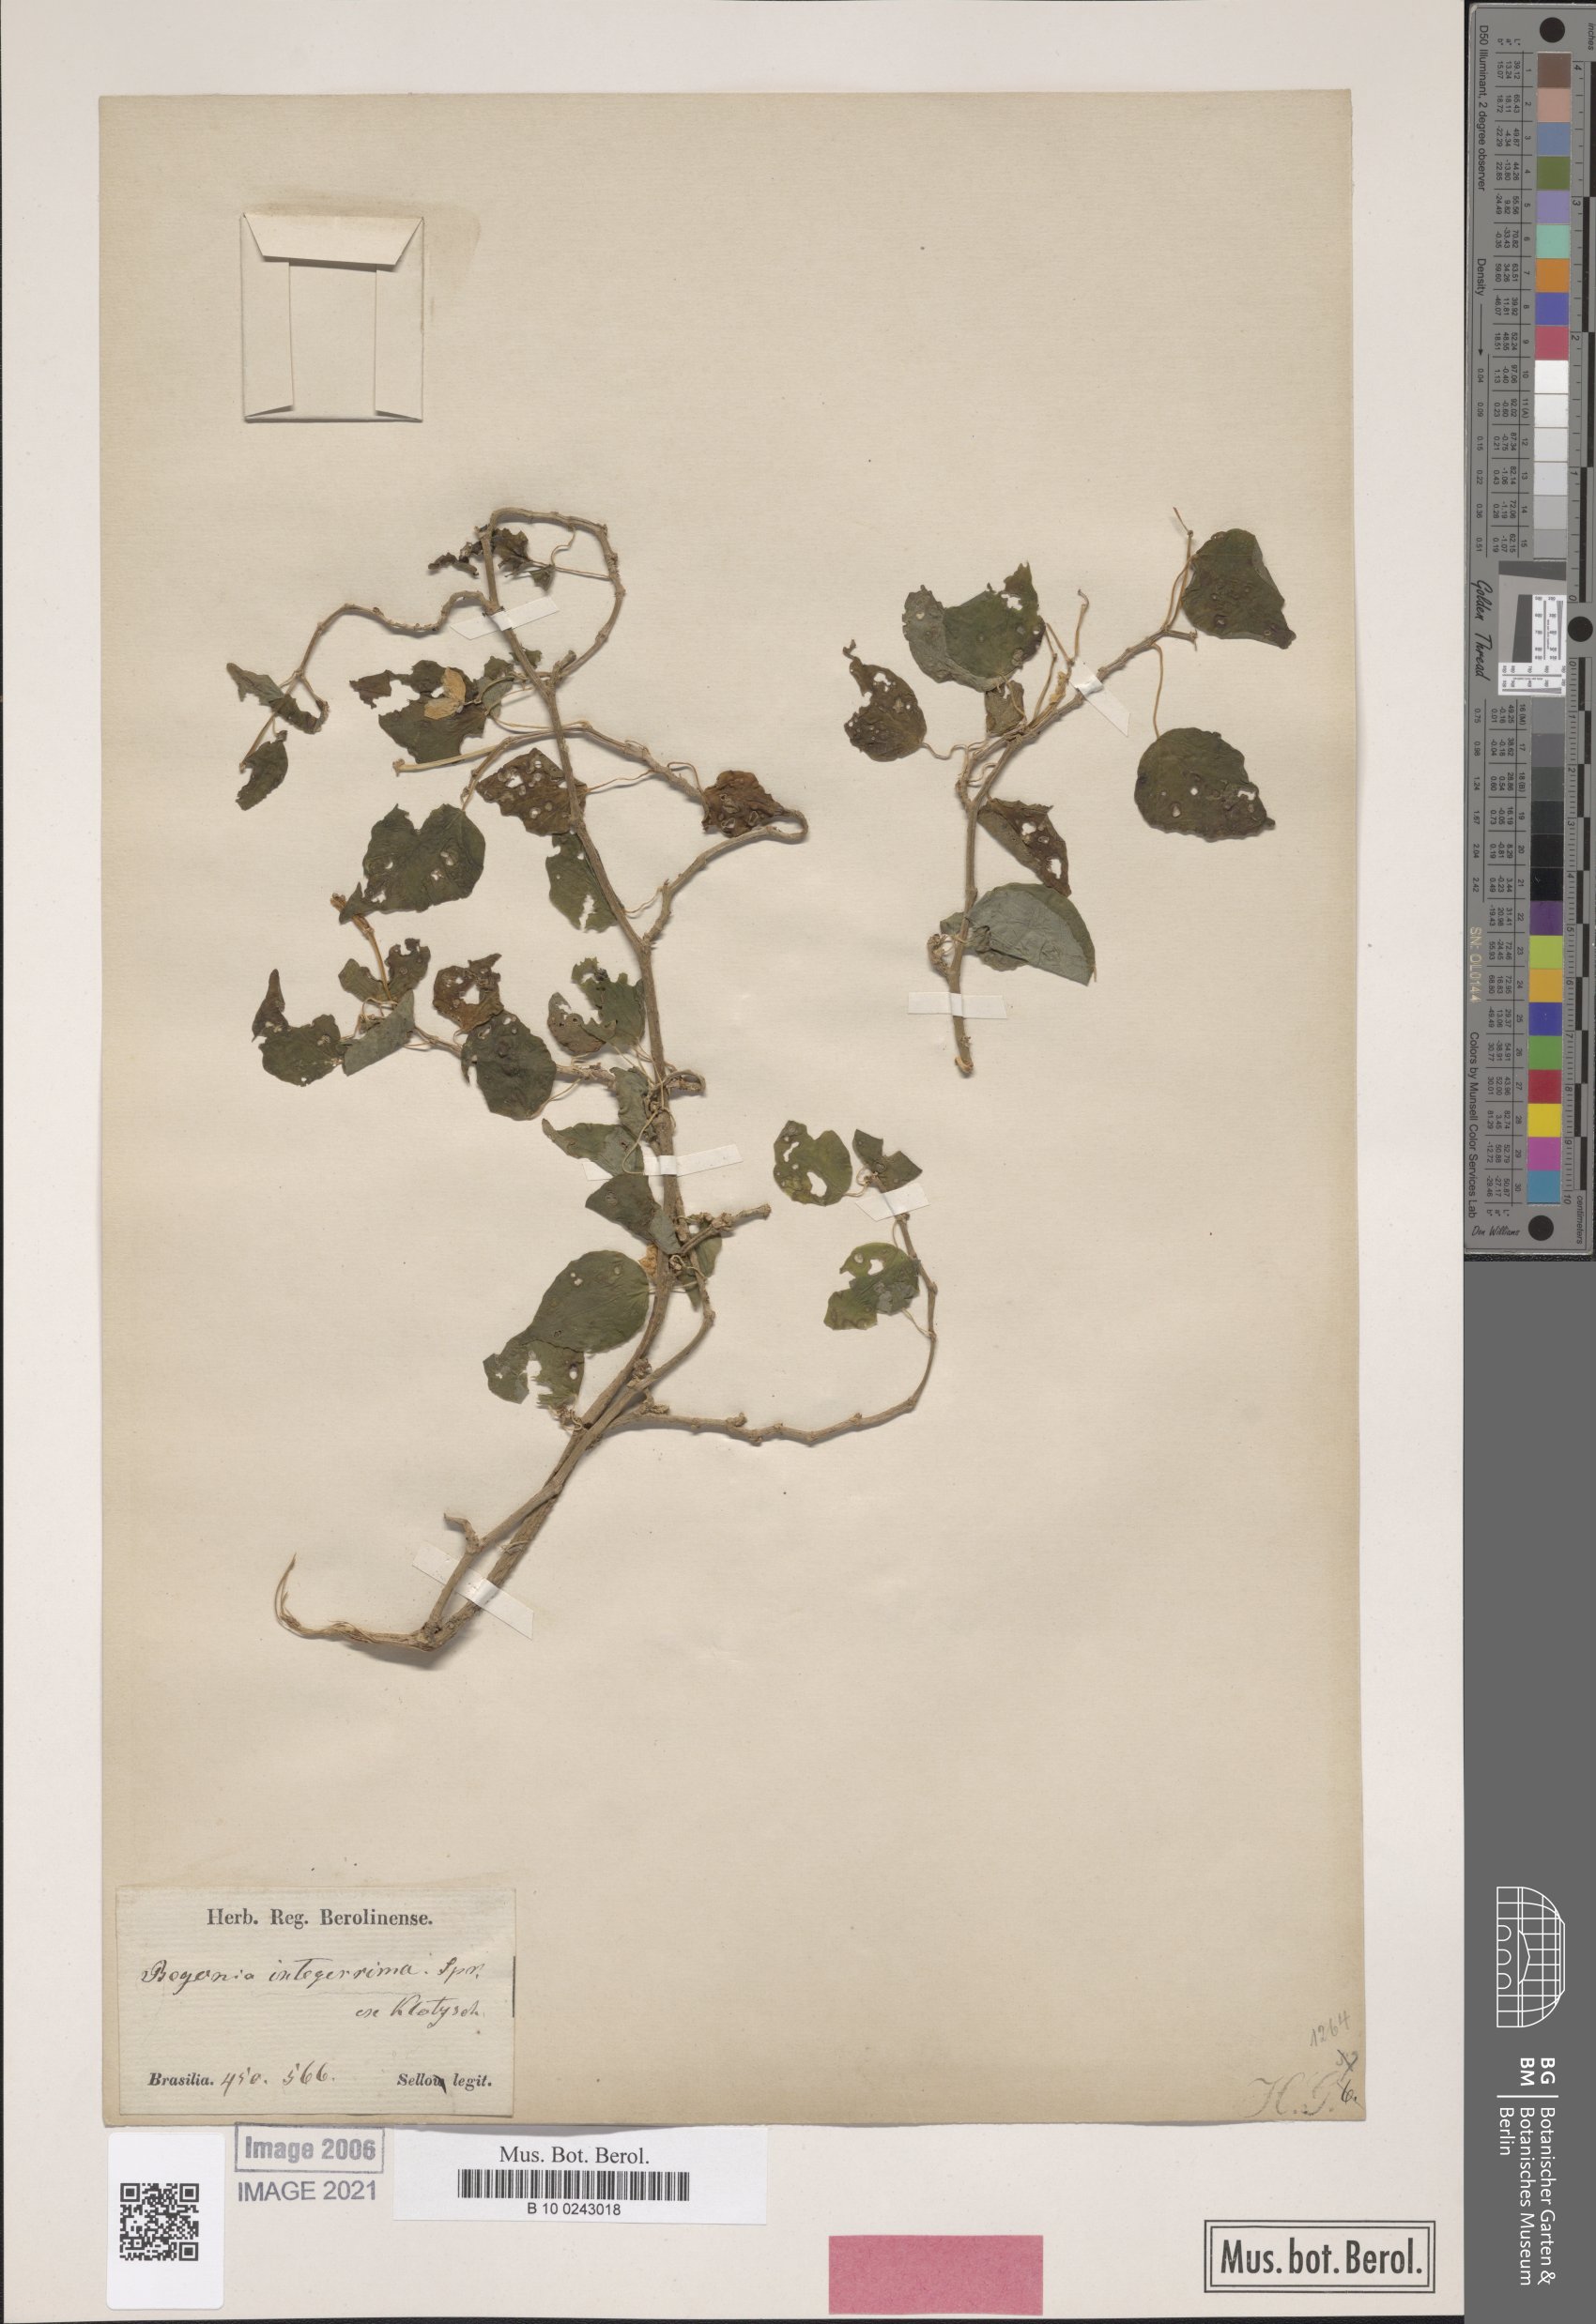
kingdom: Plantae
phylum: Tracheophyta
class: Magnoliopsida
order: Cucurbitales
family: Begoniaceae
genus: Begonia
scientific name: Begonia integerrima
